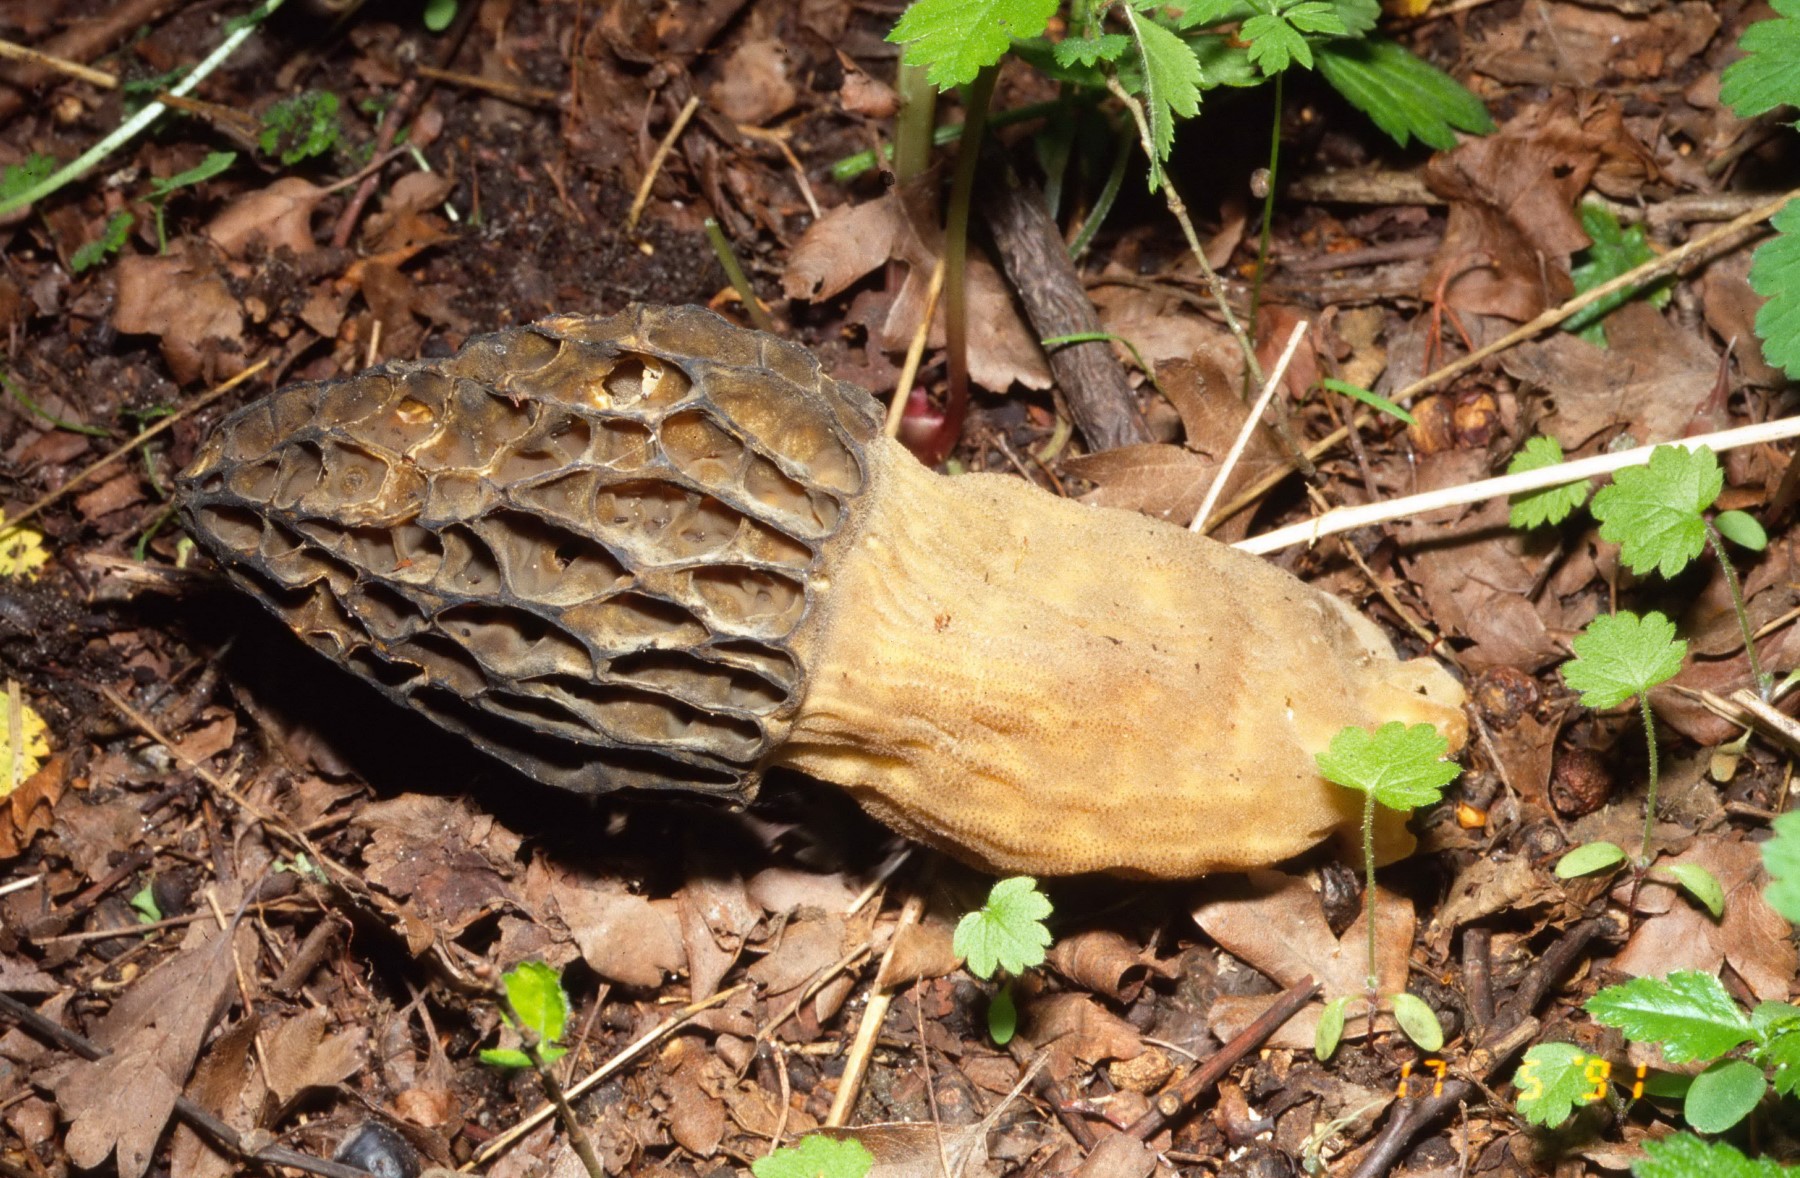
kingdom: Fungi
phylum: Ascomycota
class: Pezizomycetes
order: Pezizales
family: Morchellaceae
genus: Morchella
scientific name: Morchella esculenta
